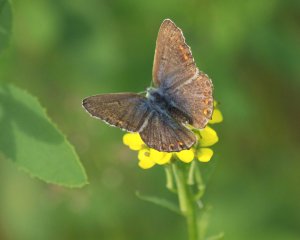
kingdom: Animalia
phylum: Arthropoda
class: Insecta
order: Lepidoptera
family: Lycaenidae
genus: Polyommatus
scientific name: Polyommatus icarus
